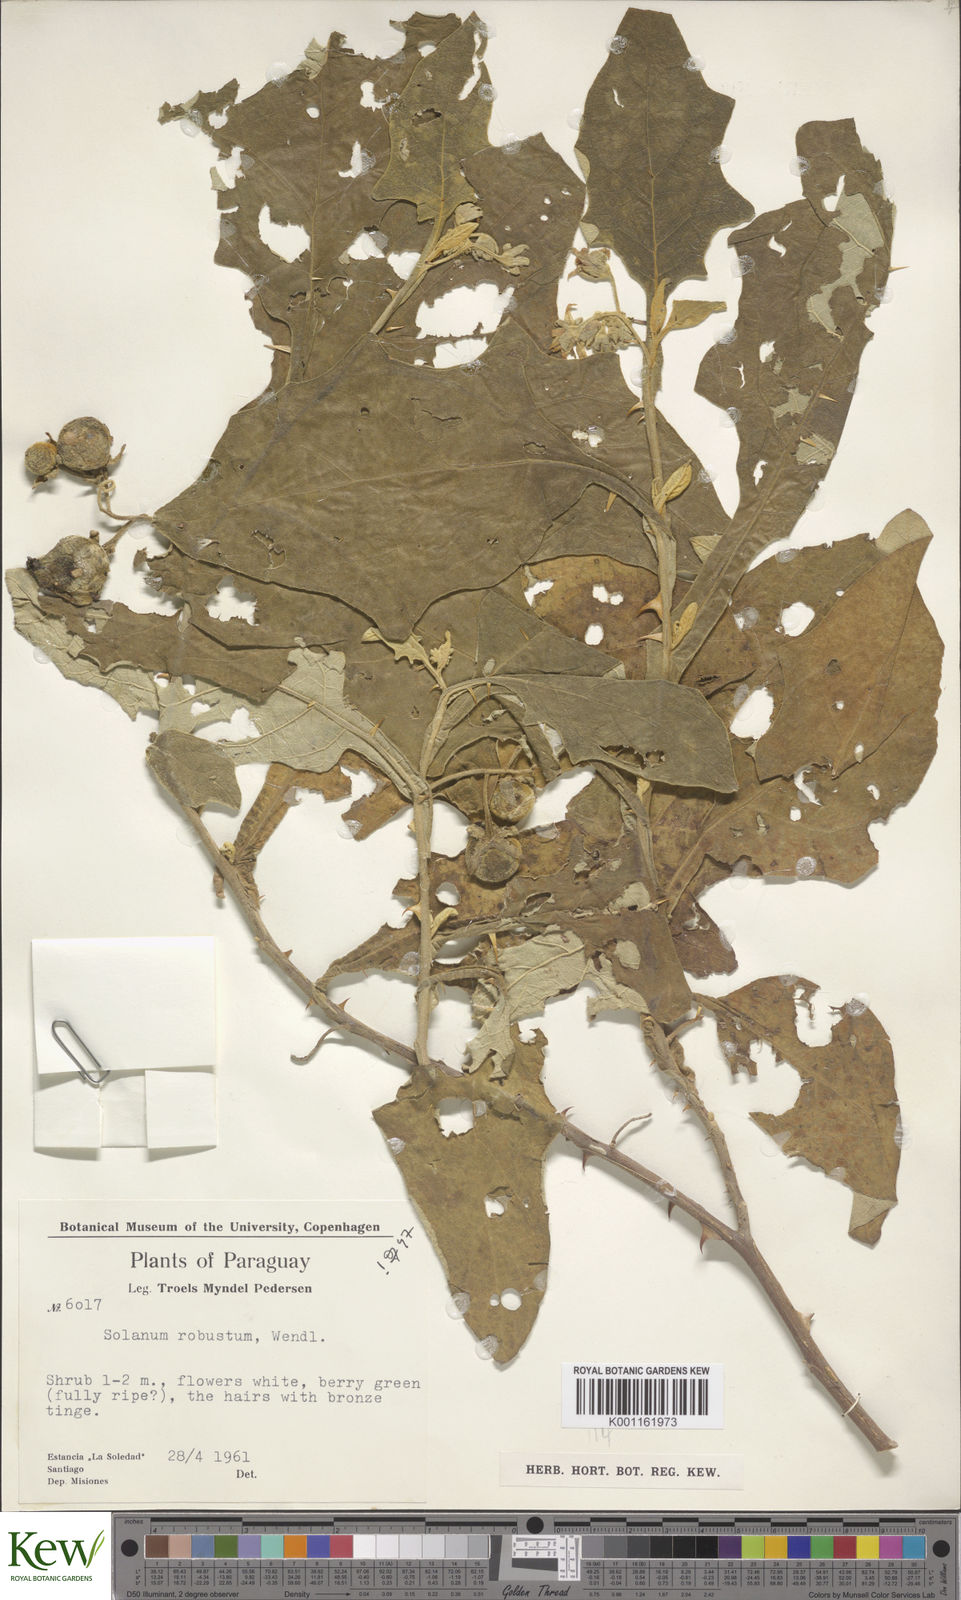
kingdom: Plantae
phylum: Tracheophyta
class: Magnoliopsida
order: Solanales
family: Solanaceae
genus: Solanum
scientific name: Solanum robustum
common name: Shrubby nightshade
